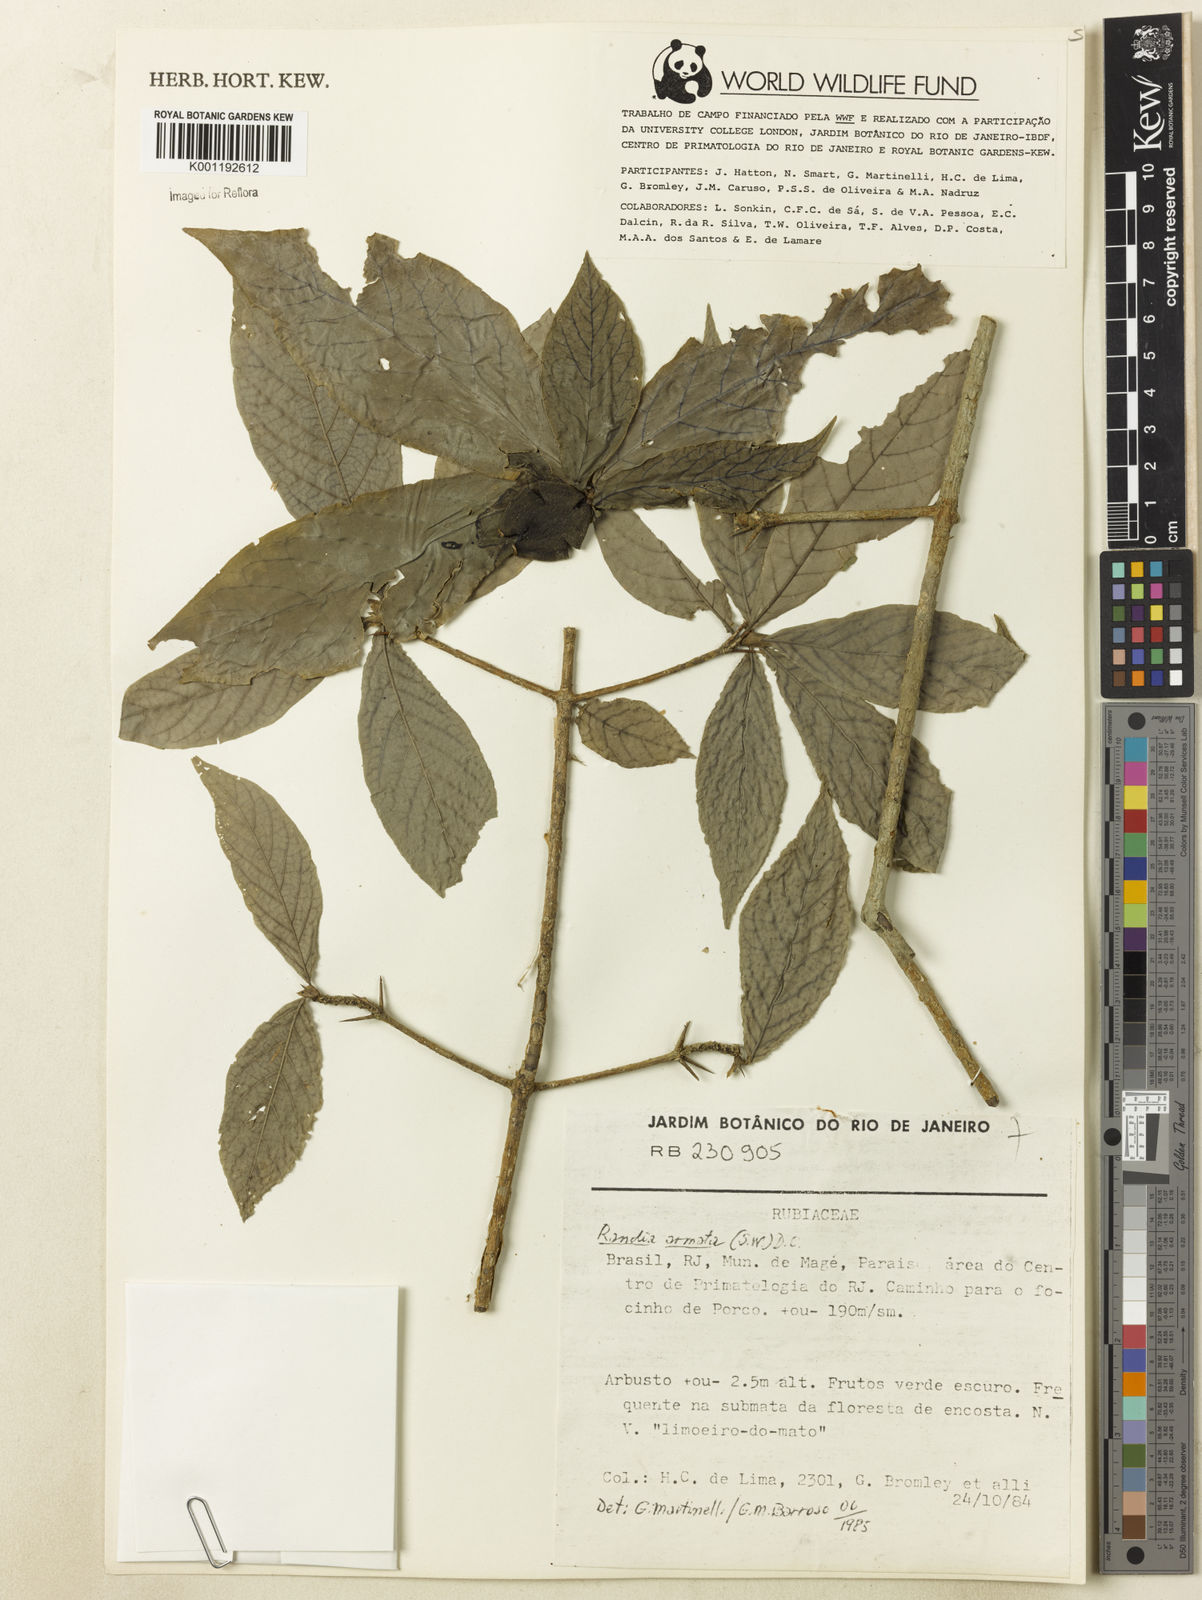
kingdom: Plantae
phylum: Tracheophyta
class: Magnoliopsida
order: Gentianales
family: Rubiaceae
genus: Randia
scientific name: Randia armata
